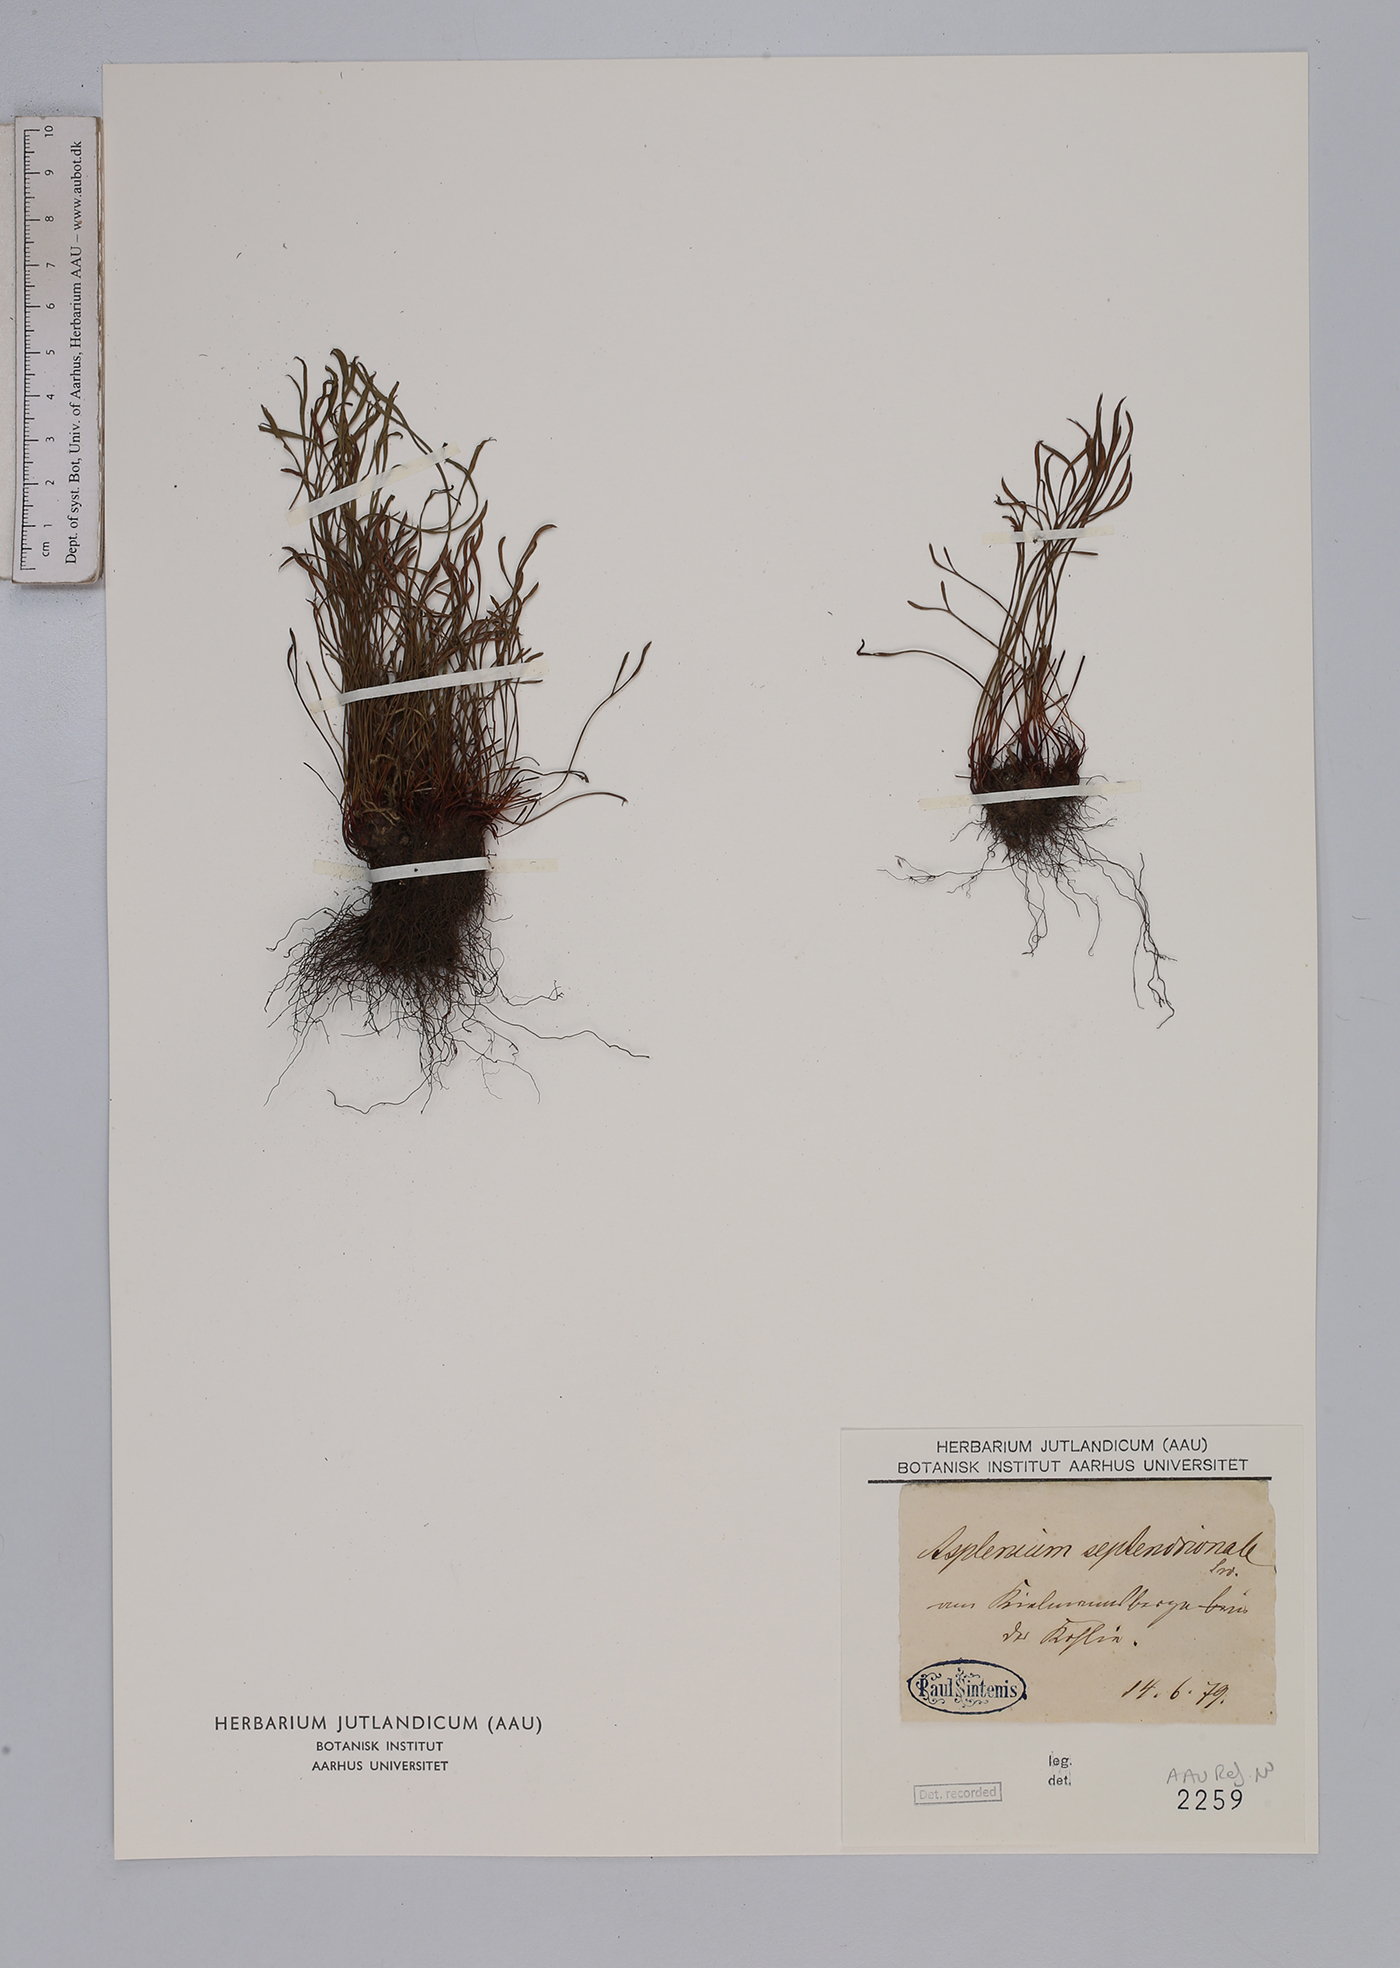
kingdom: Plantae
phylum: Tracheophyta
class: Polypodiopsida
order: Polypodiales
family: Aspleniaceae
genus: Asplenium
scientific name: Asplenium septentrionale
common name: Forked spleenwort
